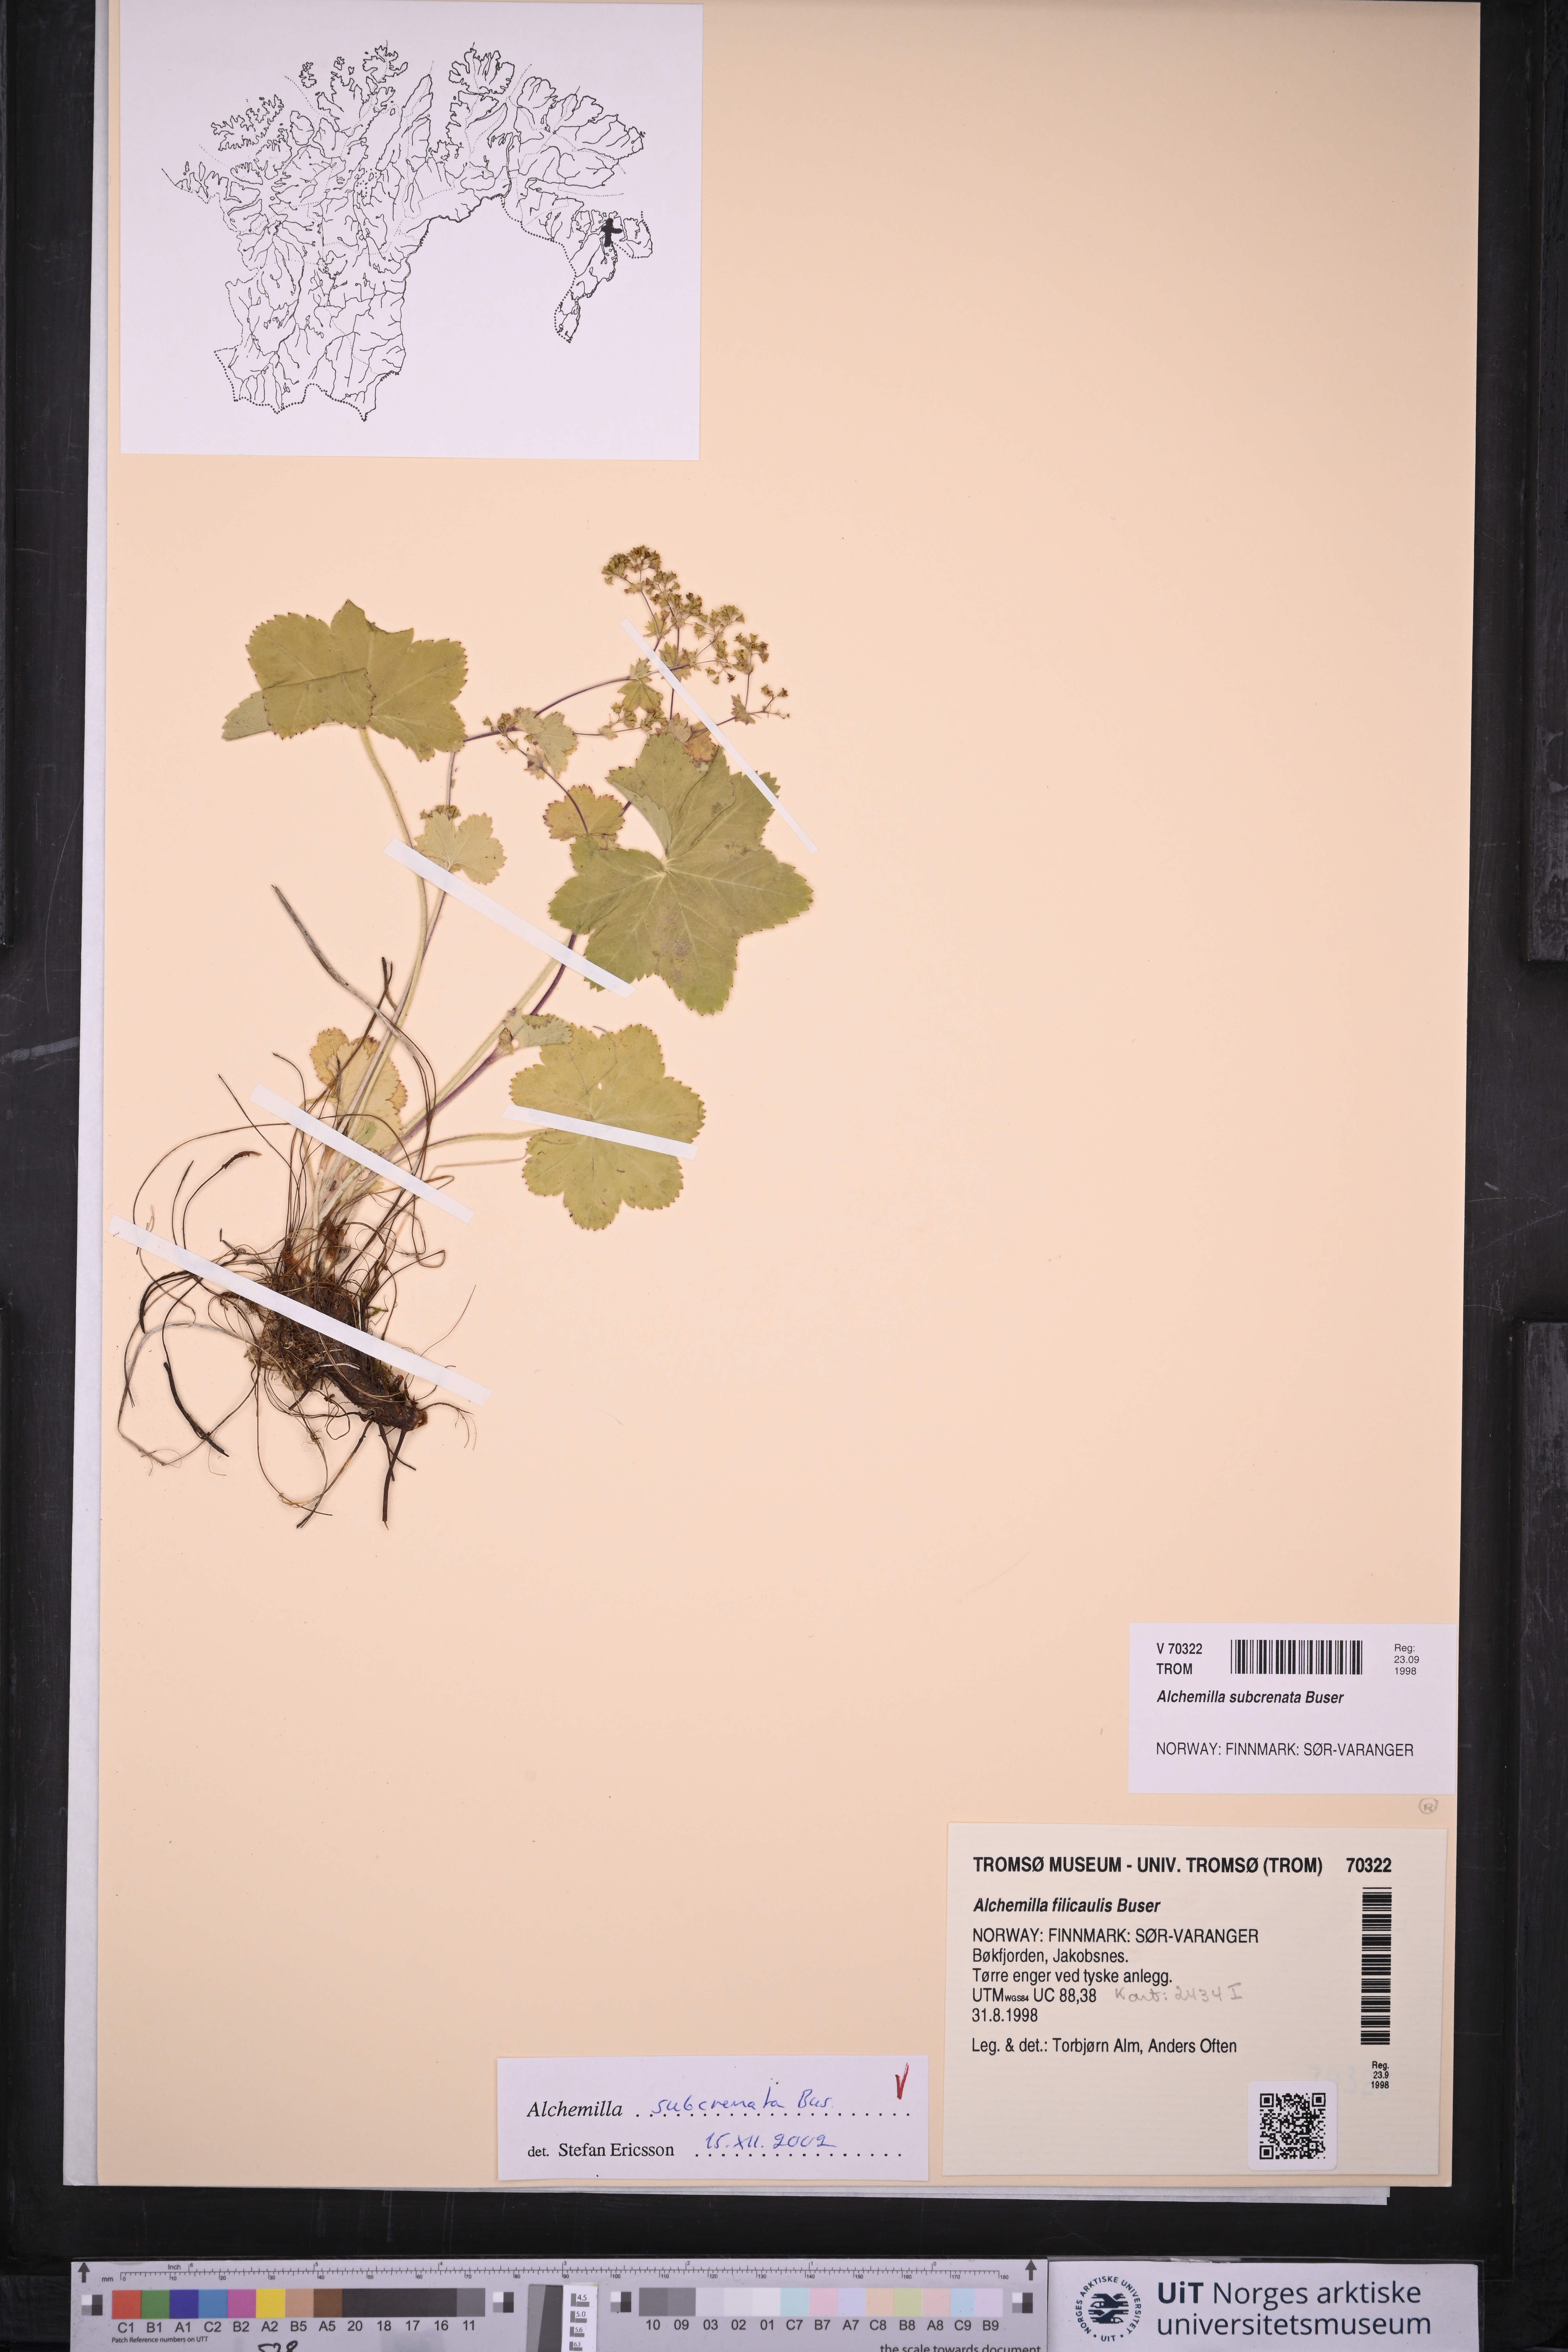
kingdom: Plantae
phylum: Tracheophyta
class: Magnoliopsida
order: Rosales
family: Rosaceae
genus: Alchemilla
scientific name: Alchemilla subcrenata
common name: Broadtooth lady's mantle
